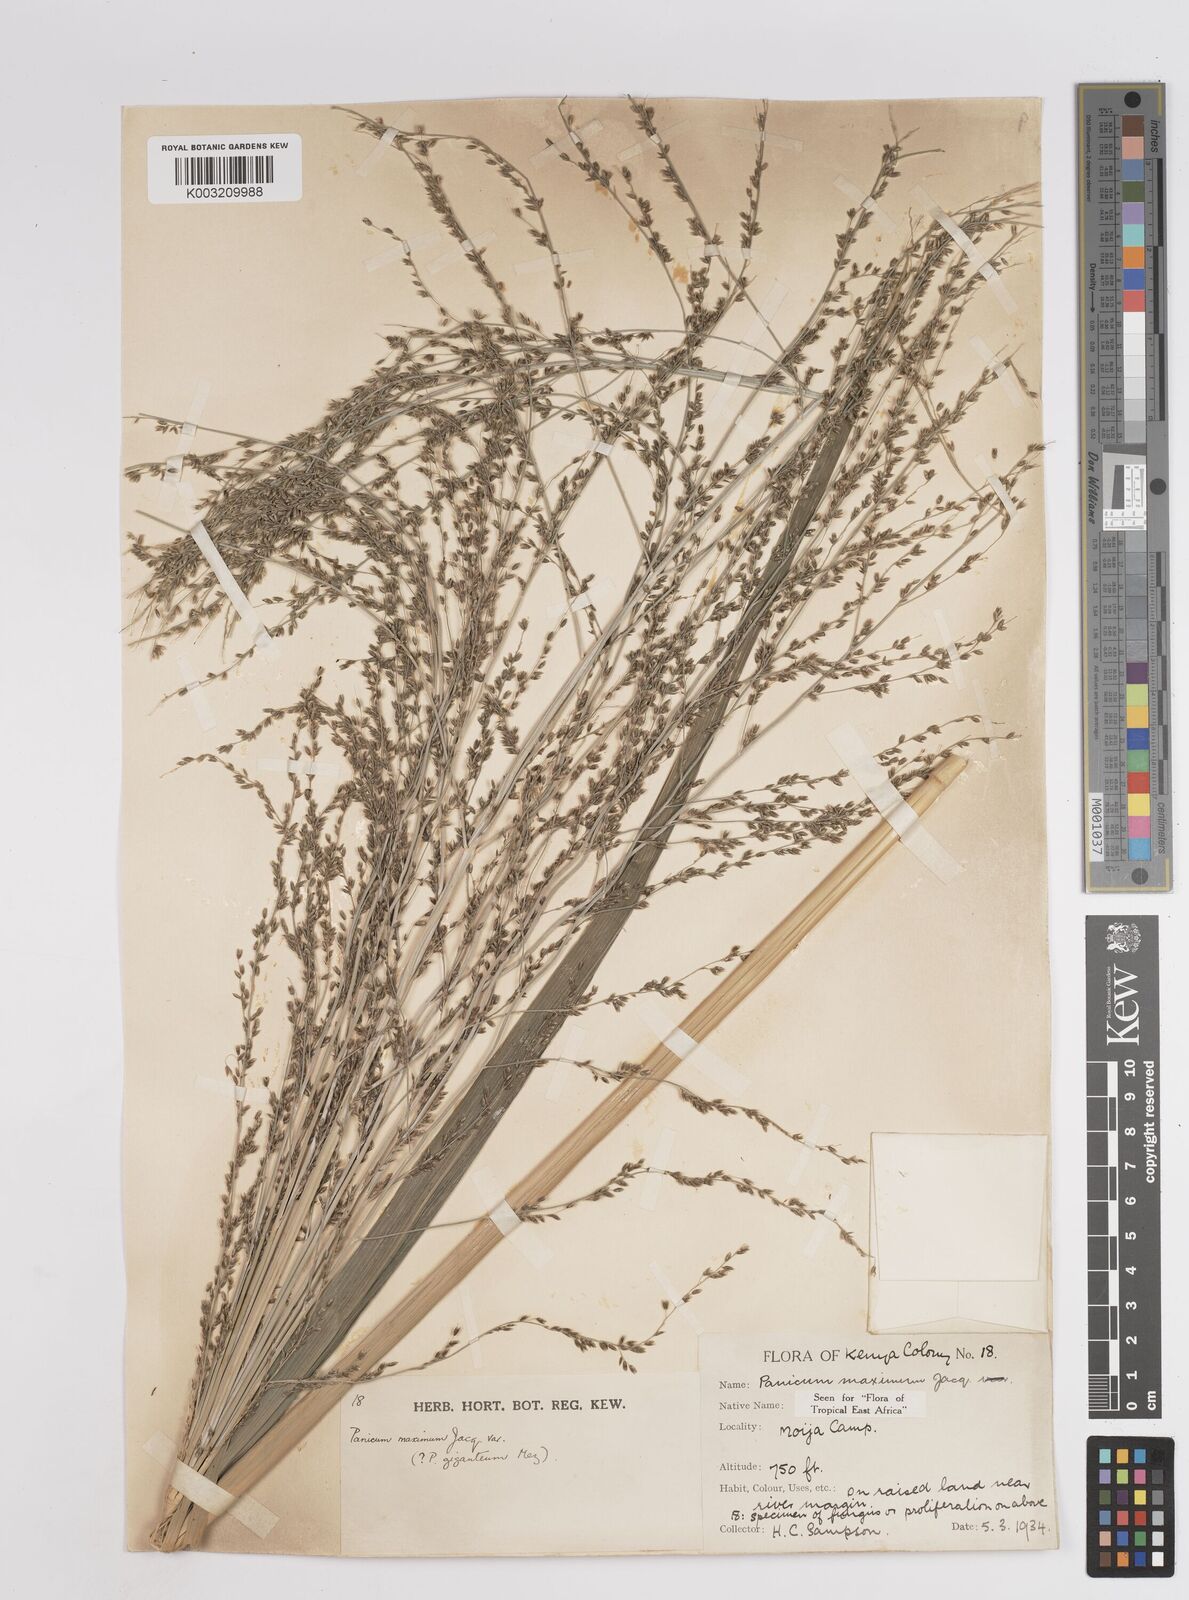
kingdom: Plantae
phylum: Tracheophyta
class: Liliopsida
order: Poales
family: Poaceae
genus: Megathyrsus
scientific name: Megathyrsus maximus
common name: Guineagrass
